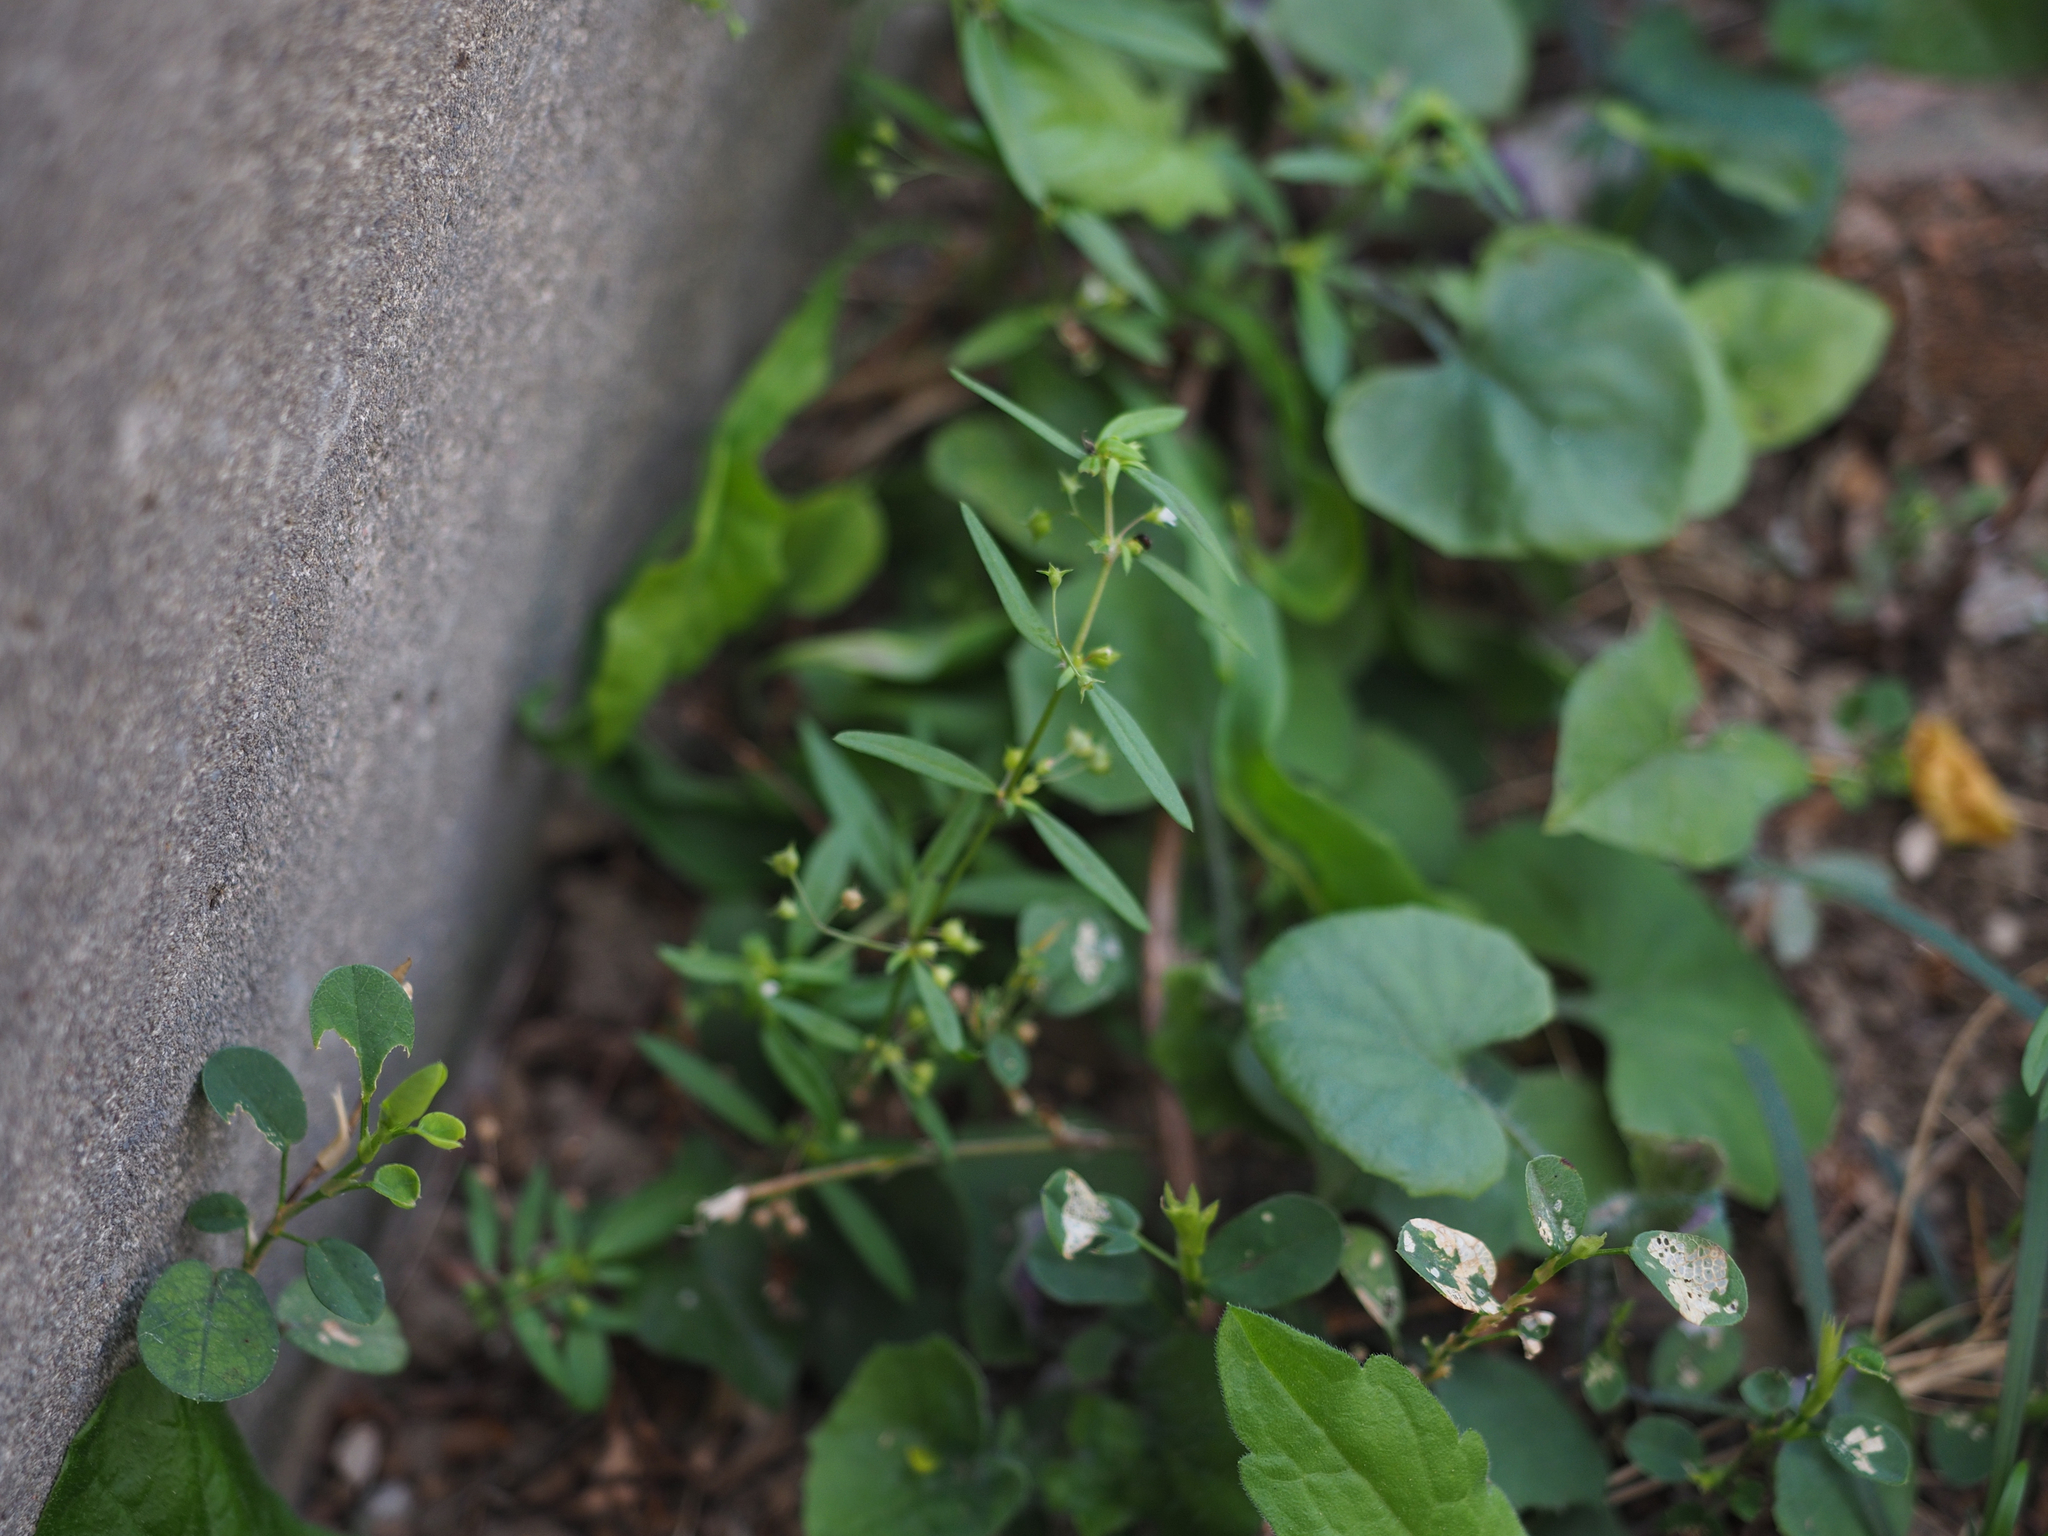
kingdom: Plantae
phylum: Tracheophyta
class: Magnoliopsida
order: Gentianales
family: Rubiaceae
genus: Oldenlandia
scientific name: Oldenlandia corymbosa
